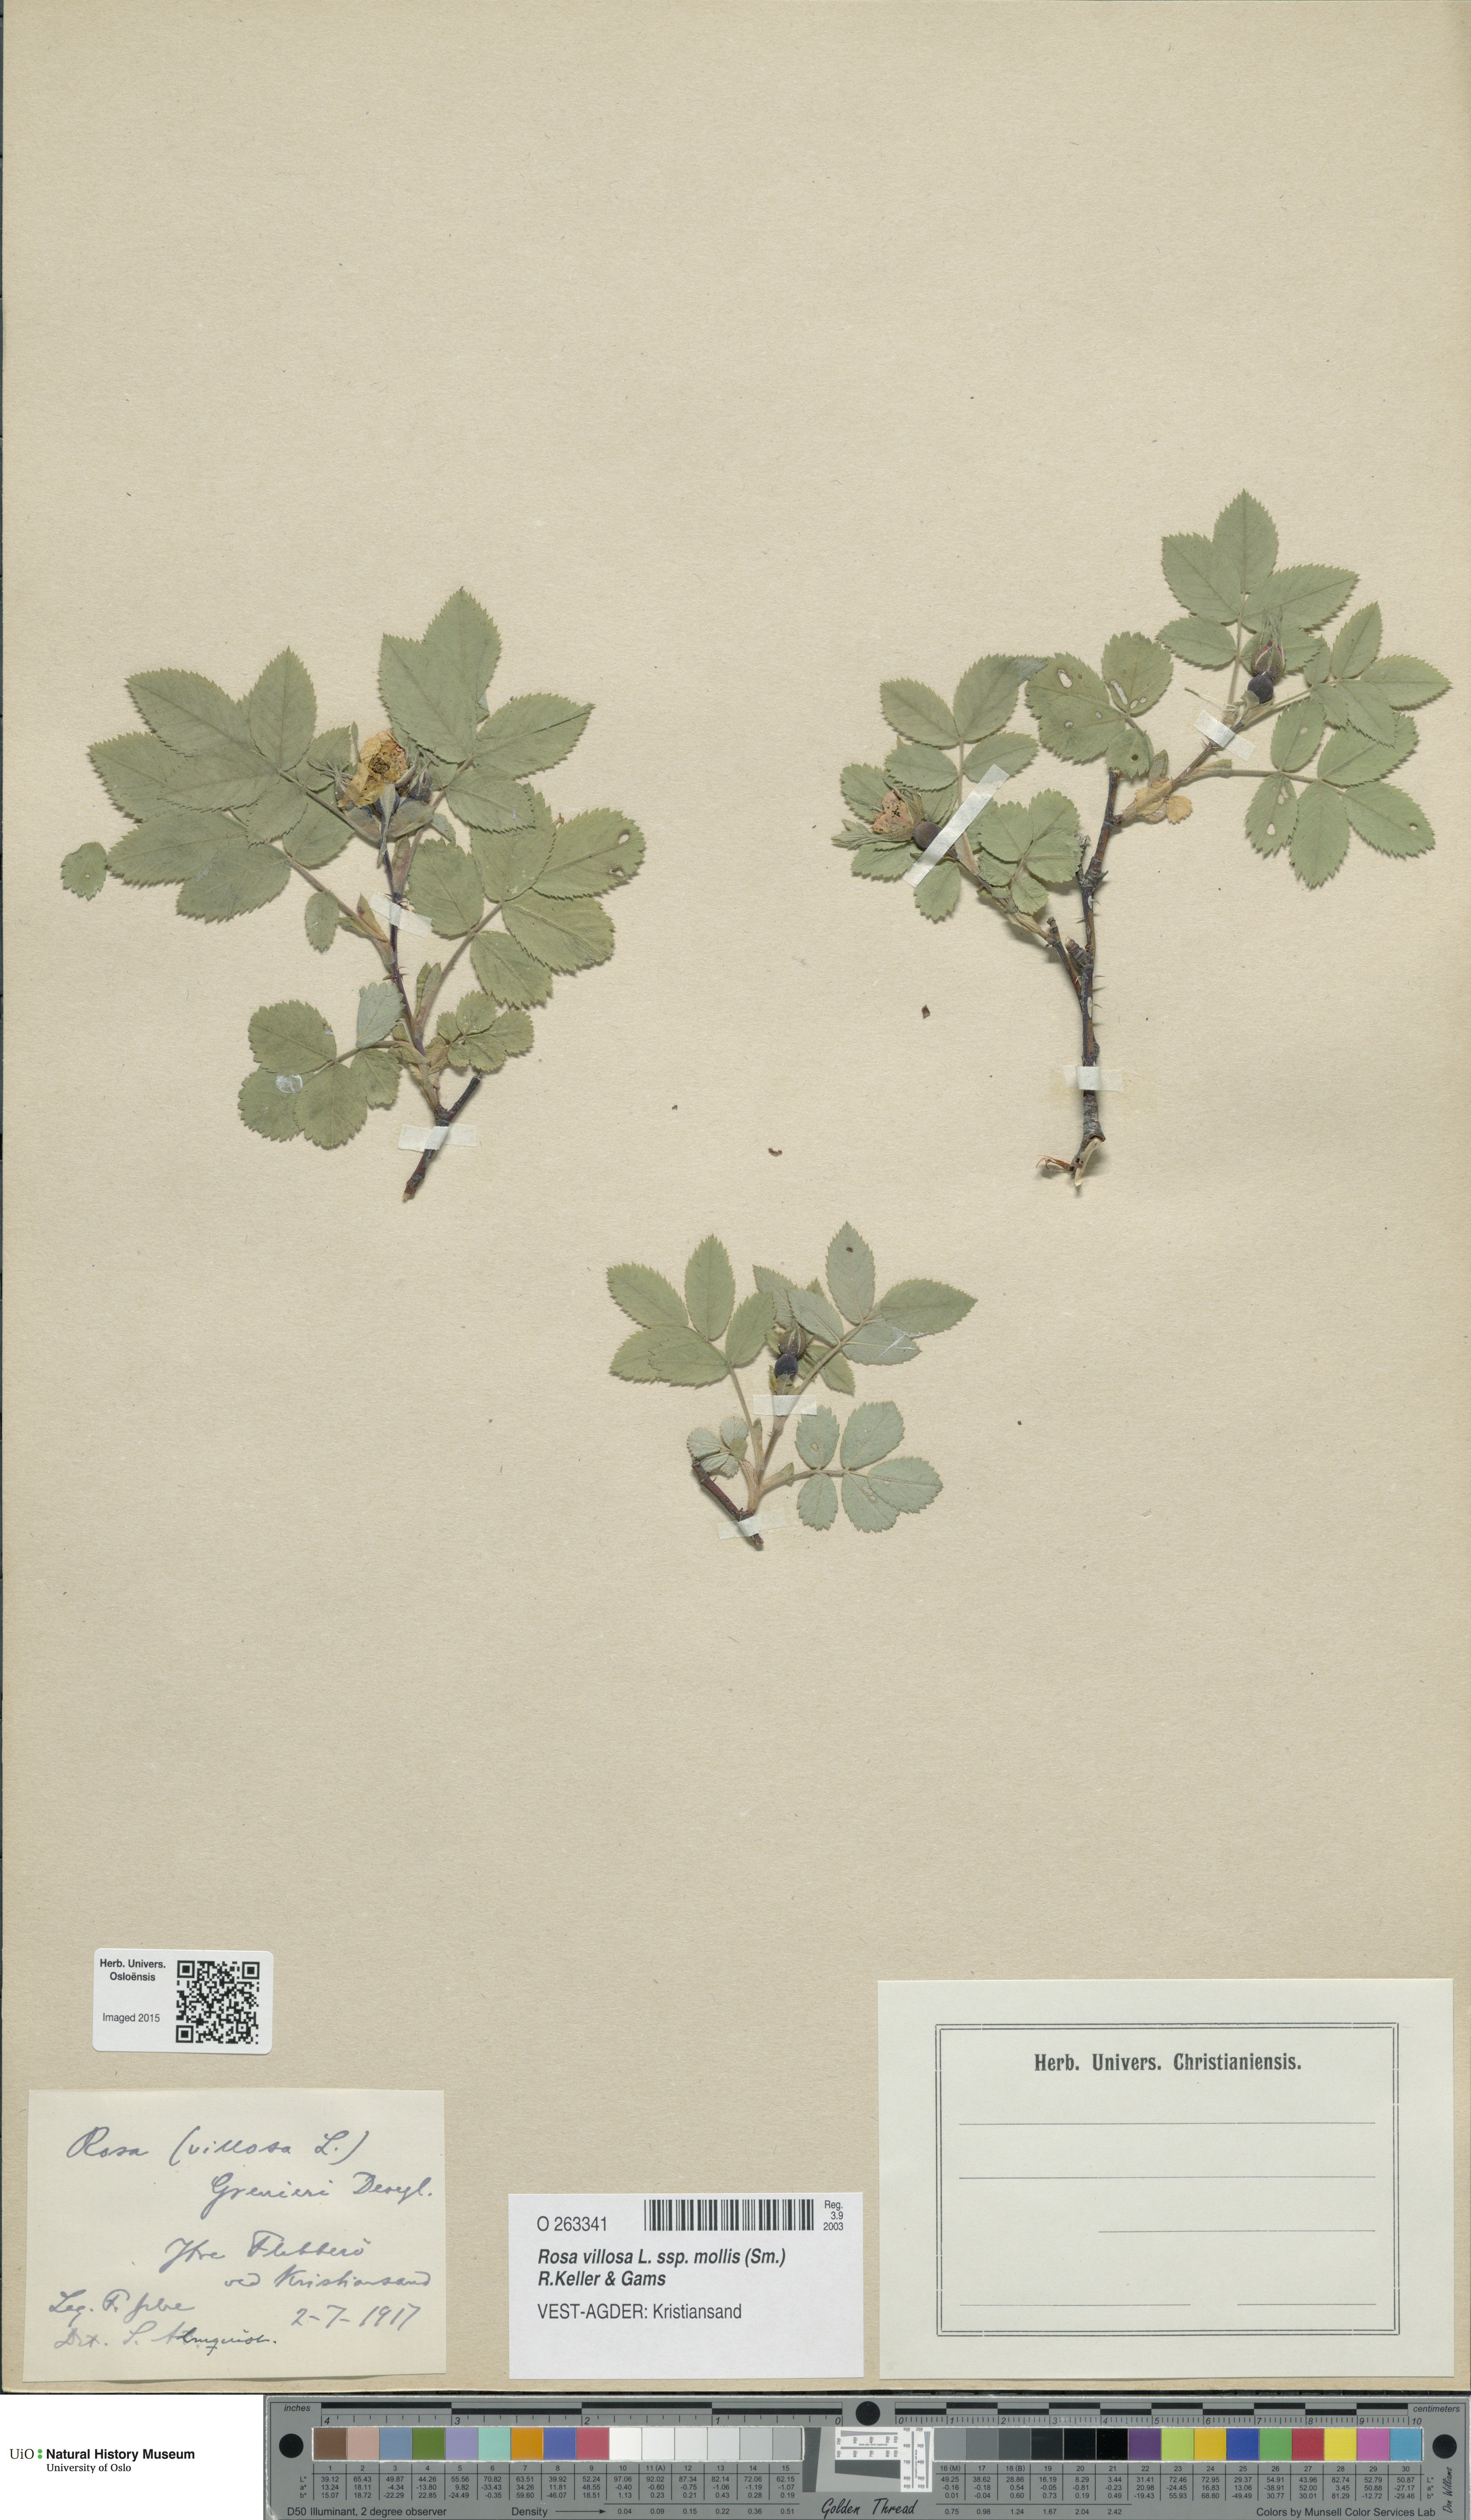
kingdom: Plantae
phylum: Tracheophyta
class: Magnoliopsida
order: Rosales
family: Rosaceae
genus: Rosa
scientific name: Rosa mollis
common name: Rose
